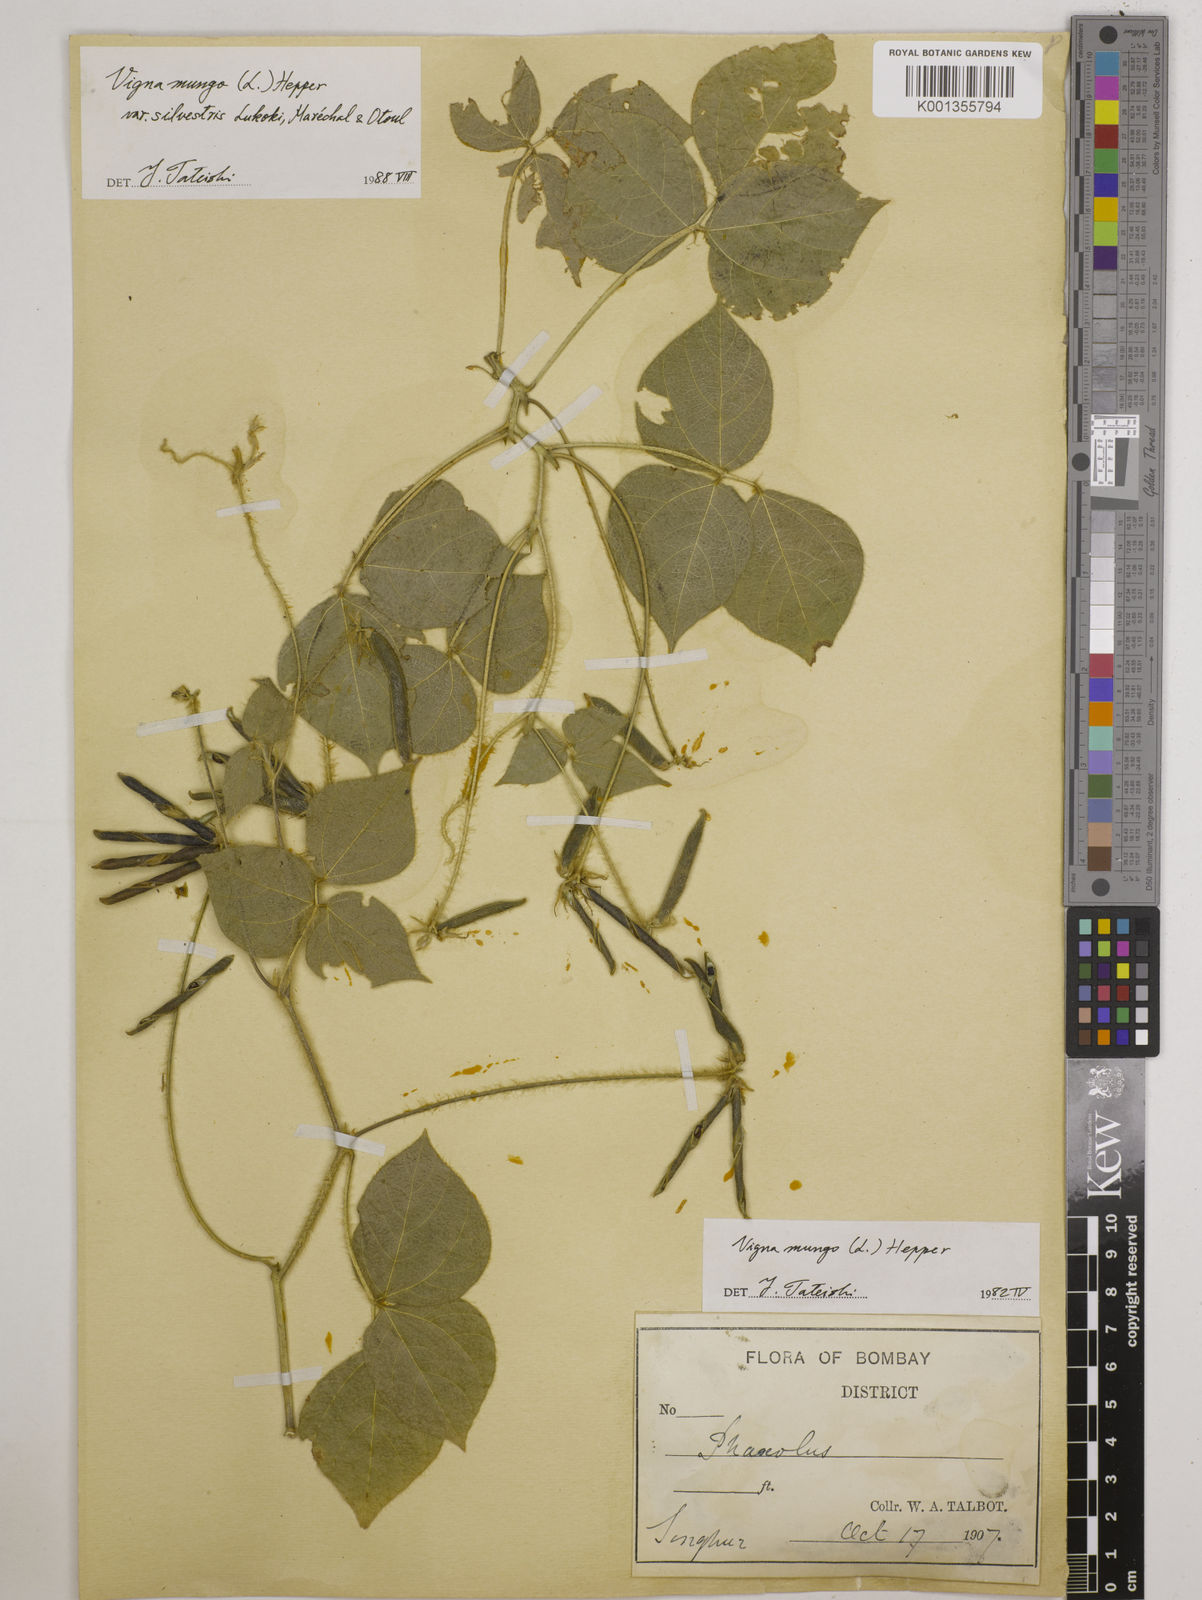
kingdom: Plantae
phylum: Tracheophyta
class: Magnoliopsida
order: Fabales
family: Fabaceae
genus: Vigna
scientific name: Vigna mungo
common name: Black gram
